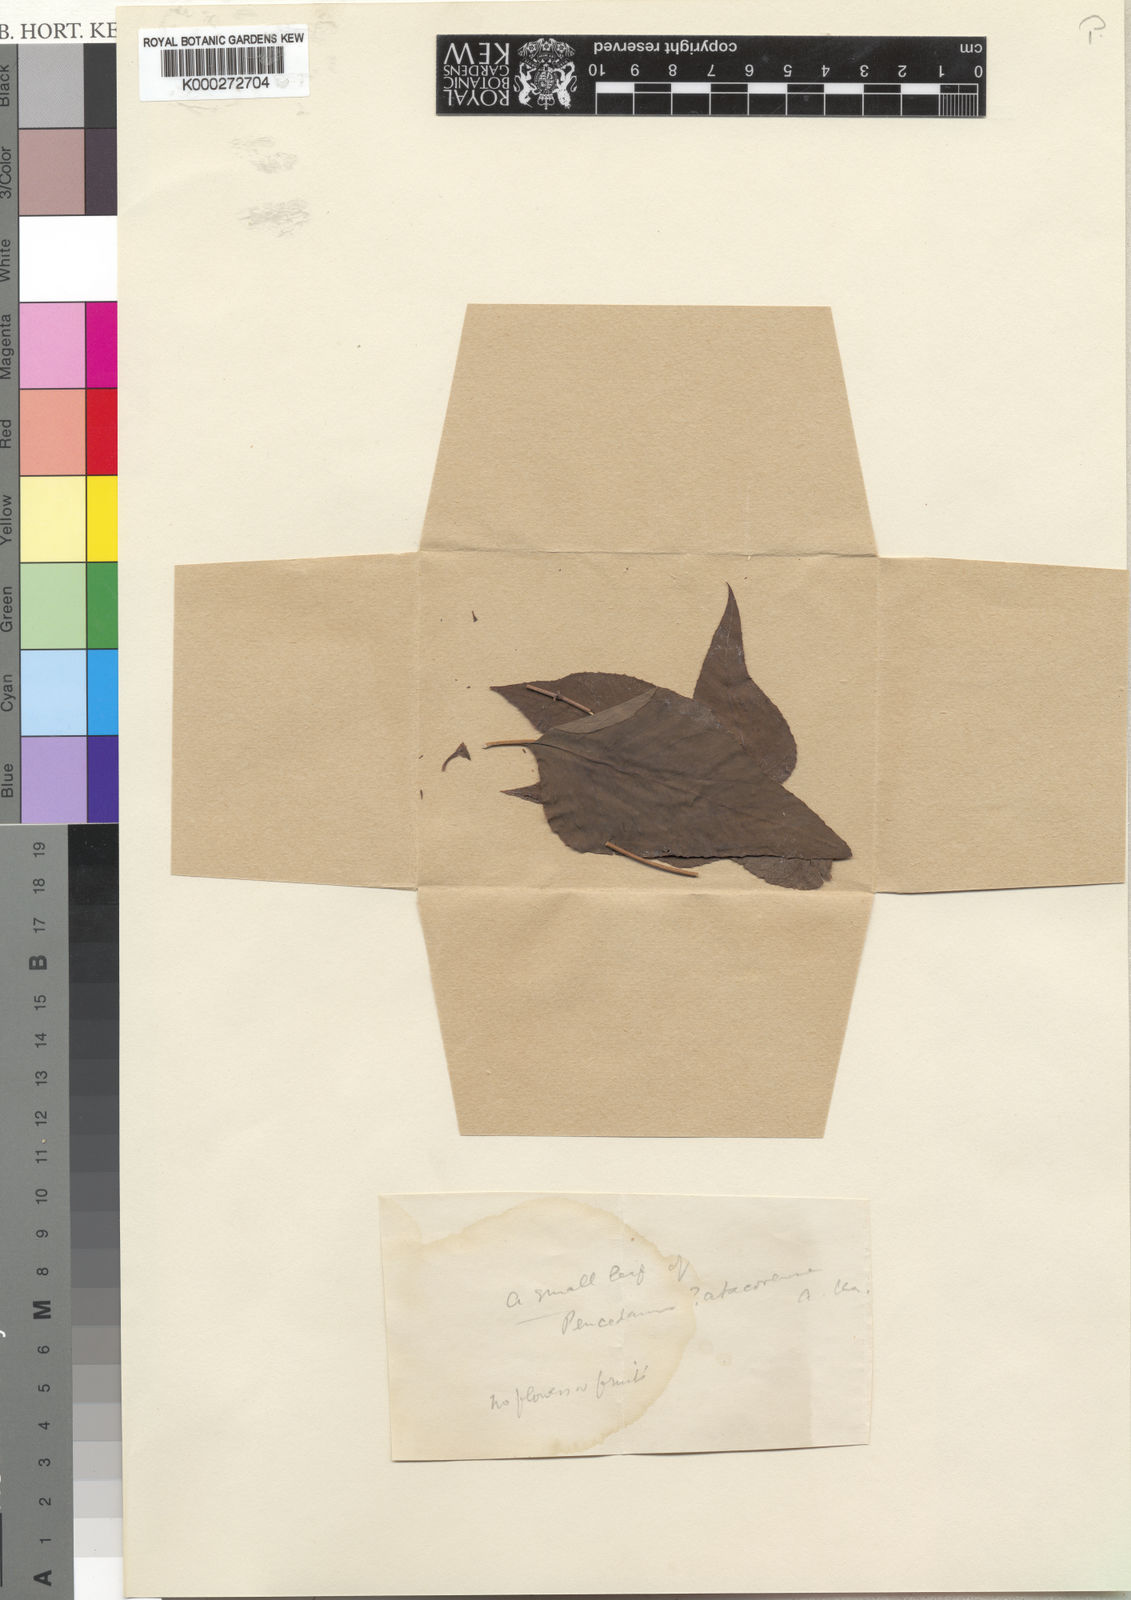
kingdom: Plantae
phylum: Tracheophyta
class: Magnoliopsida
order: Apiales
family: Apiaceae
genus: Steganotaenia
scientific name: Steganotaenia araliacea
